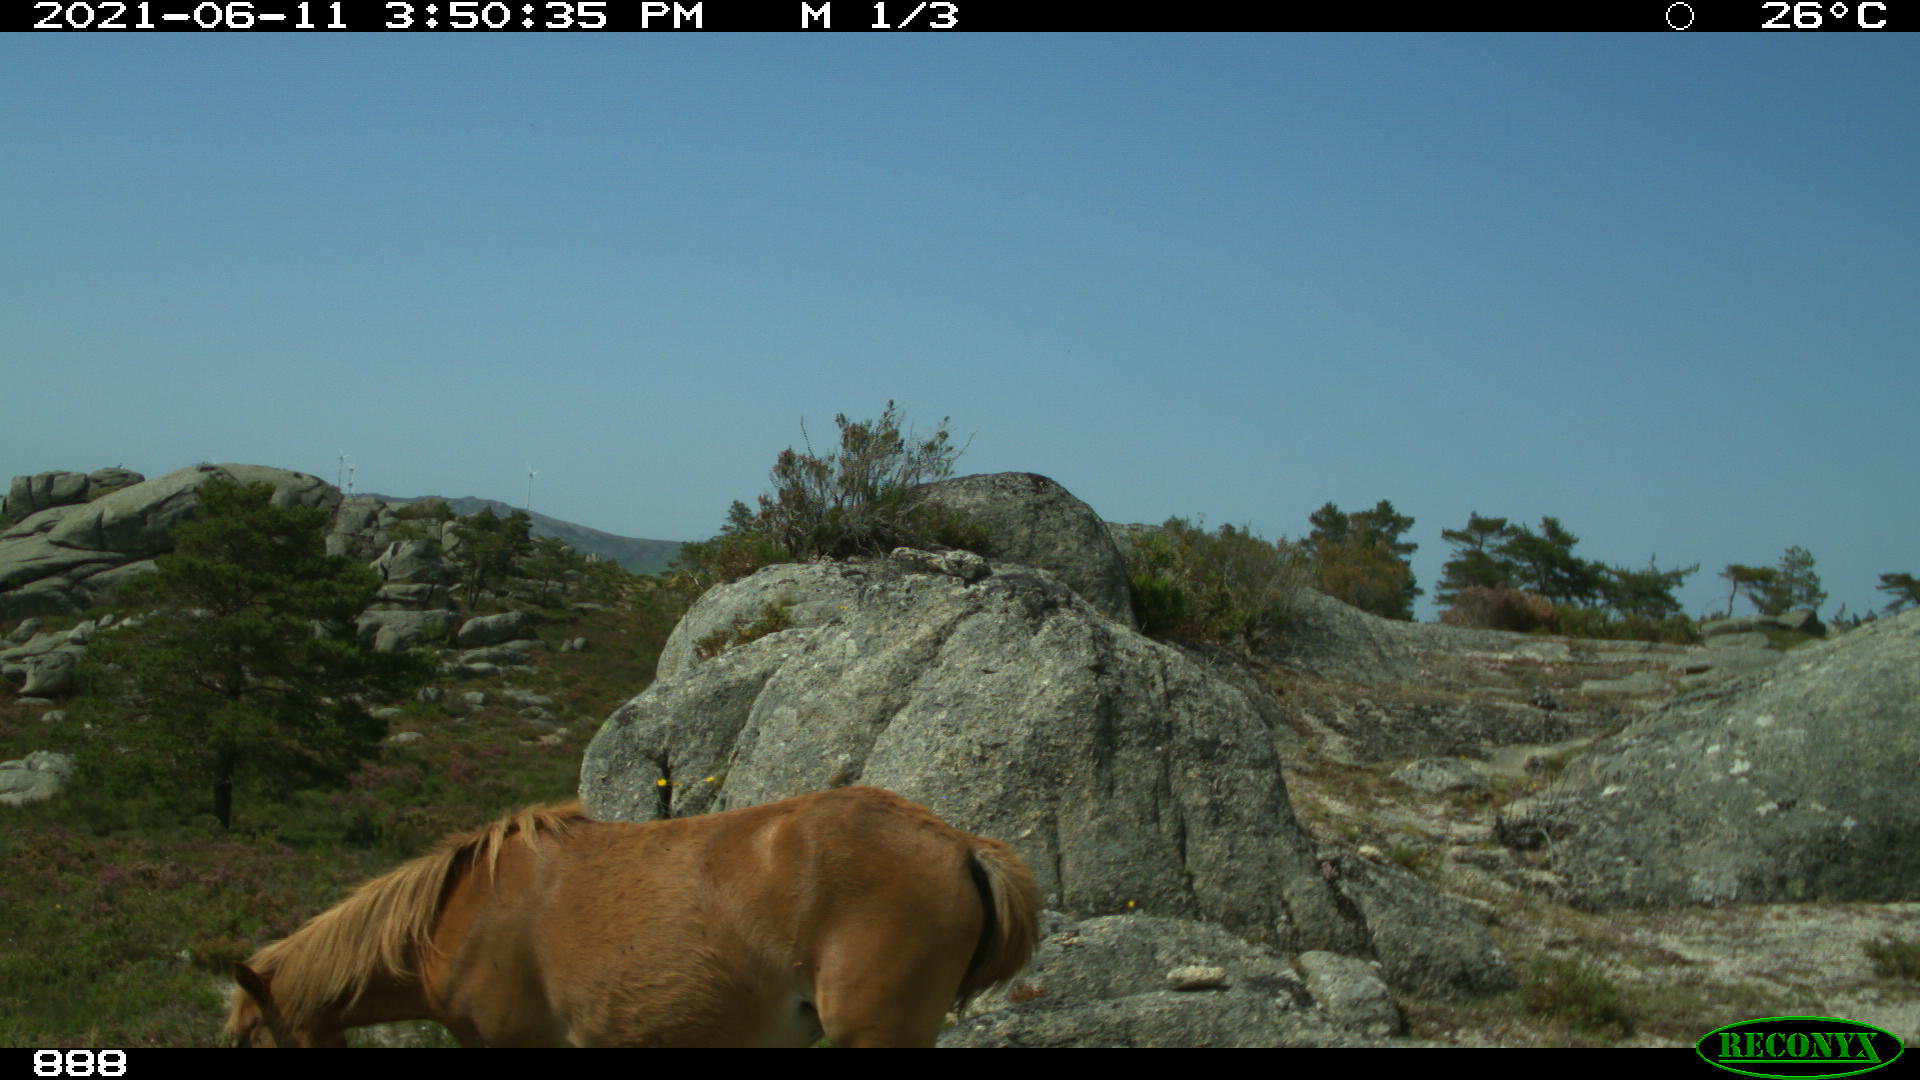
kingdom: Animalia
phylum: Chordata
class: Mammalia
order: Perissodactyla
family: Equidae
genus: Equus
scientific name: Equus caballus
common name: Horse
